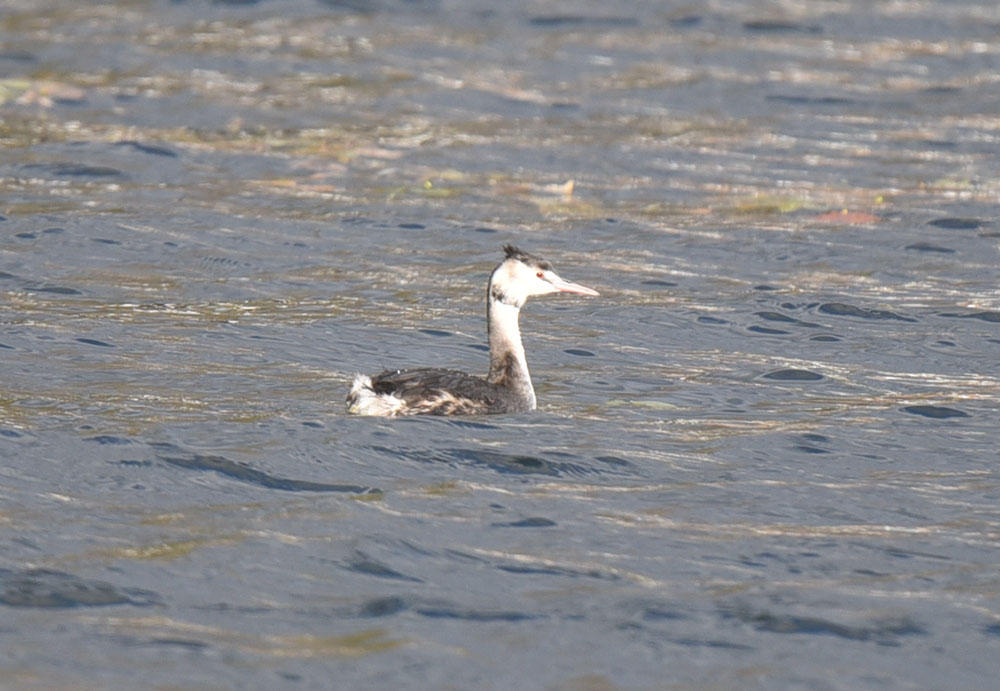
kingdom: Animalia
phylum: Chordata
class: Aves
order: Podicipediformes
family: Podicipedidae
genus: Podiceps
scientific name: Podiceps cristatus
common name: Great crested grebe
